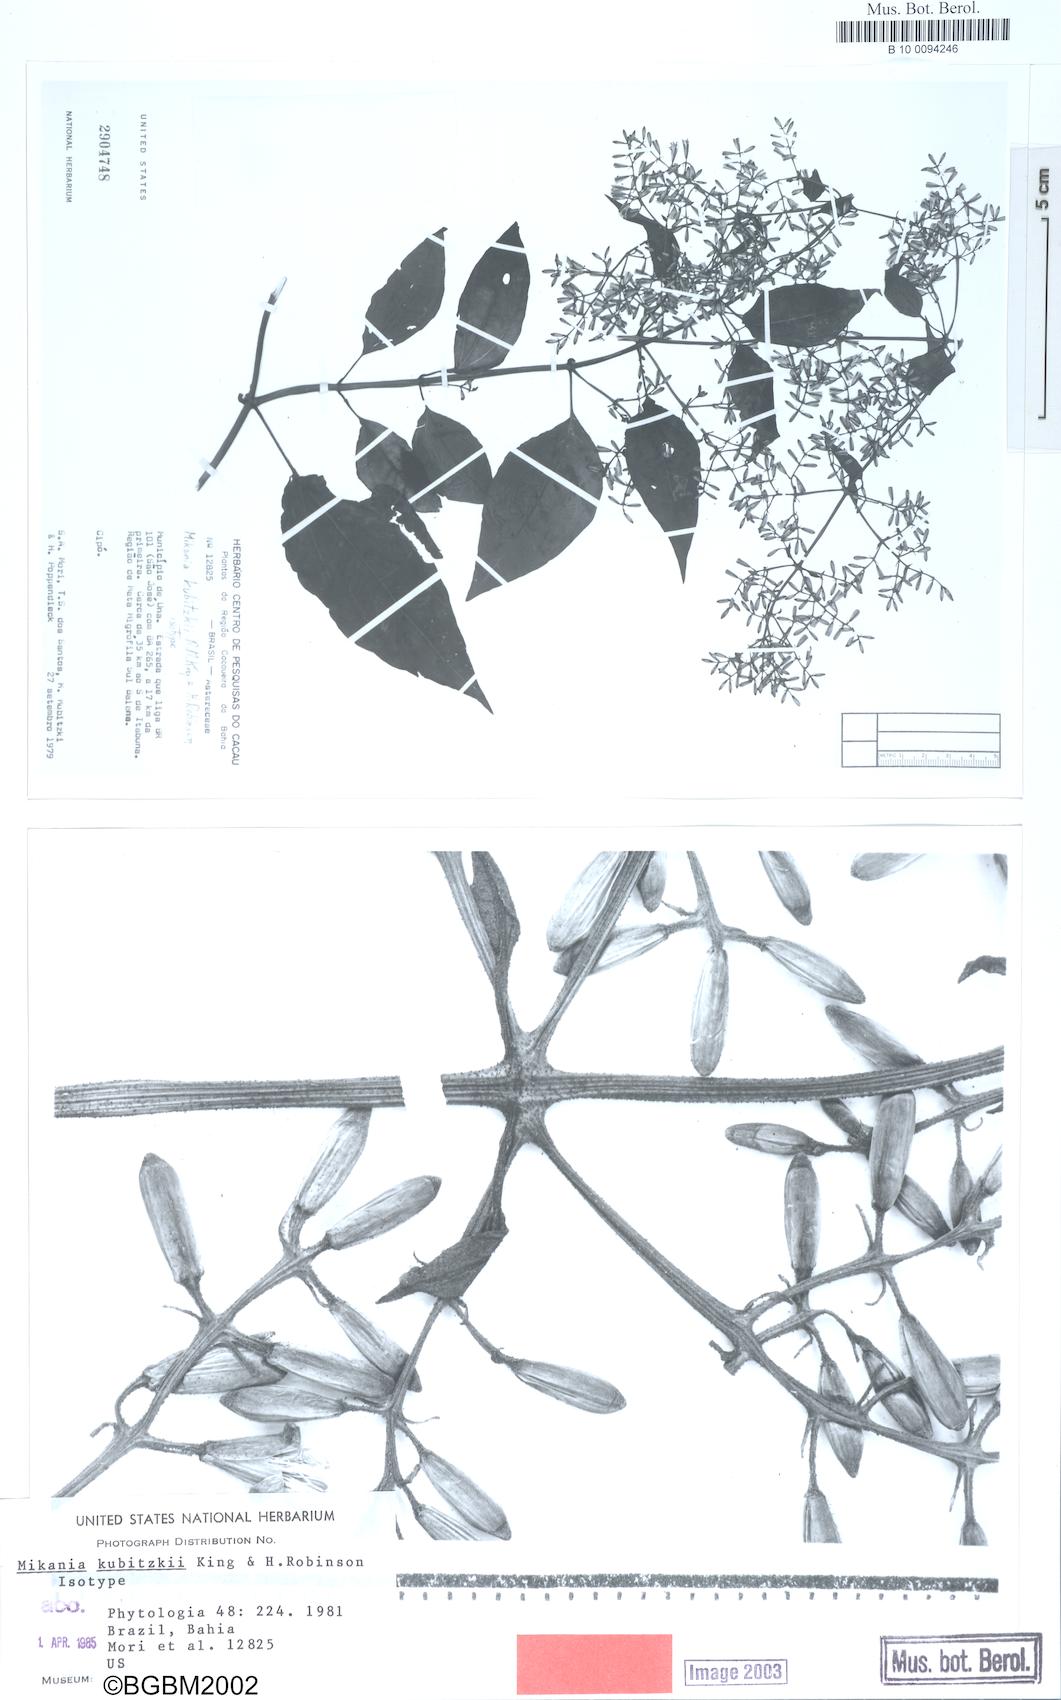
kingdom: Plantae
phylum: Tracheophyta
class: Magnoliopsida
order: Asterales
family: Asteraceae
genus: Mikania
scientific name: Mikania kubitzkii
